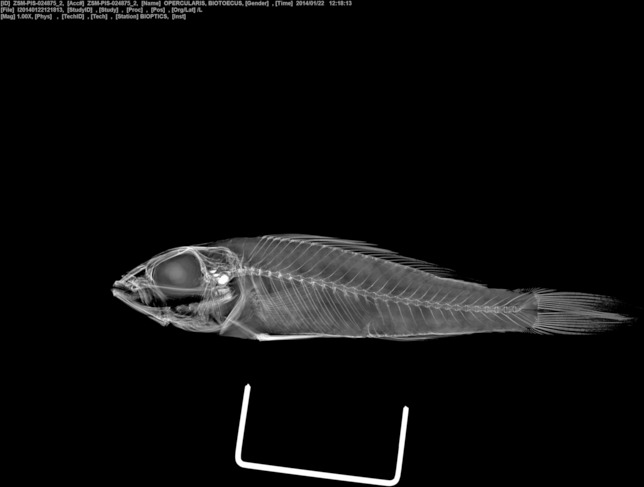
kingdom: Animalia
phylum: Chordata
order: Perciformes
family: Cichlidae
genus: Biotoecus
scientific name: Biotoecus opercularis
